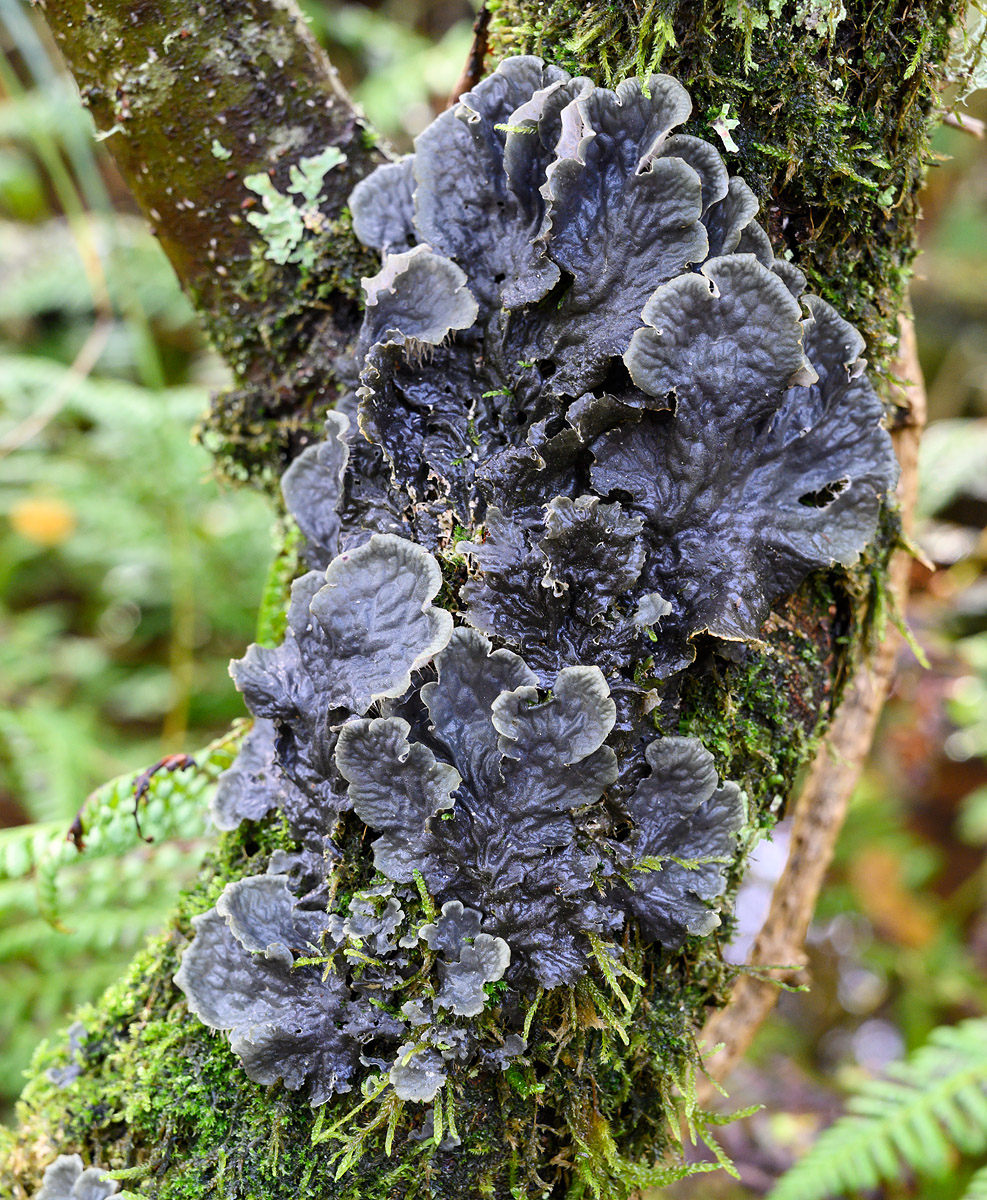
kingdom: Fungi
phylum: Ascomycota
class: Lecanoromycetes
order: Peltigerales
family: Peltigeraceae
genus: Peltigera
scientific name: Peltigera membranacea
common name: tynd skjoldlav
